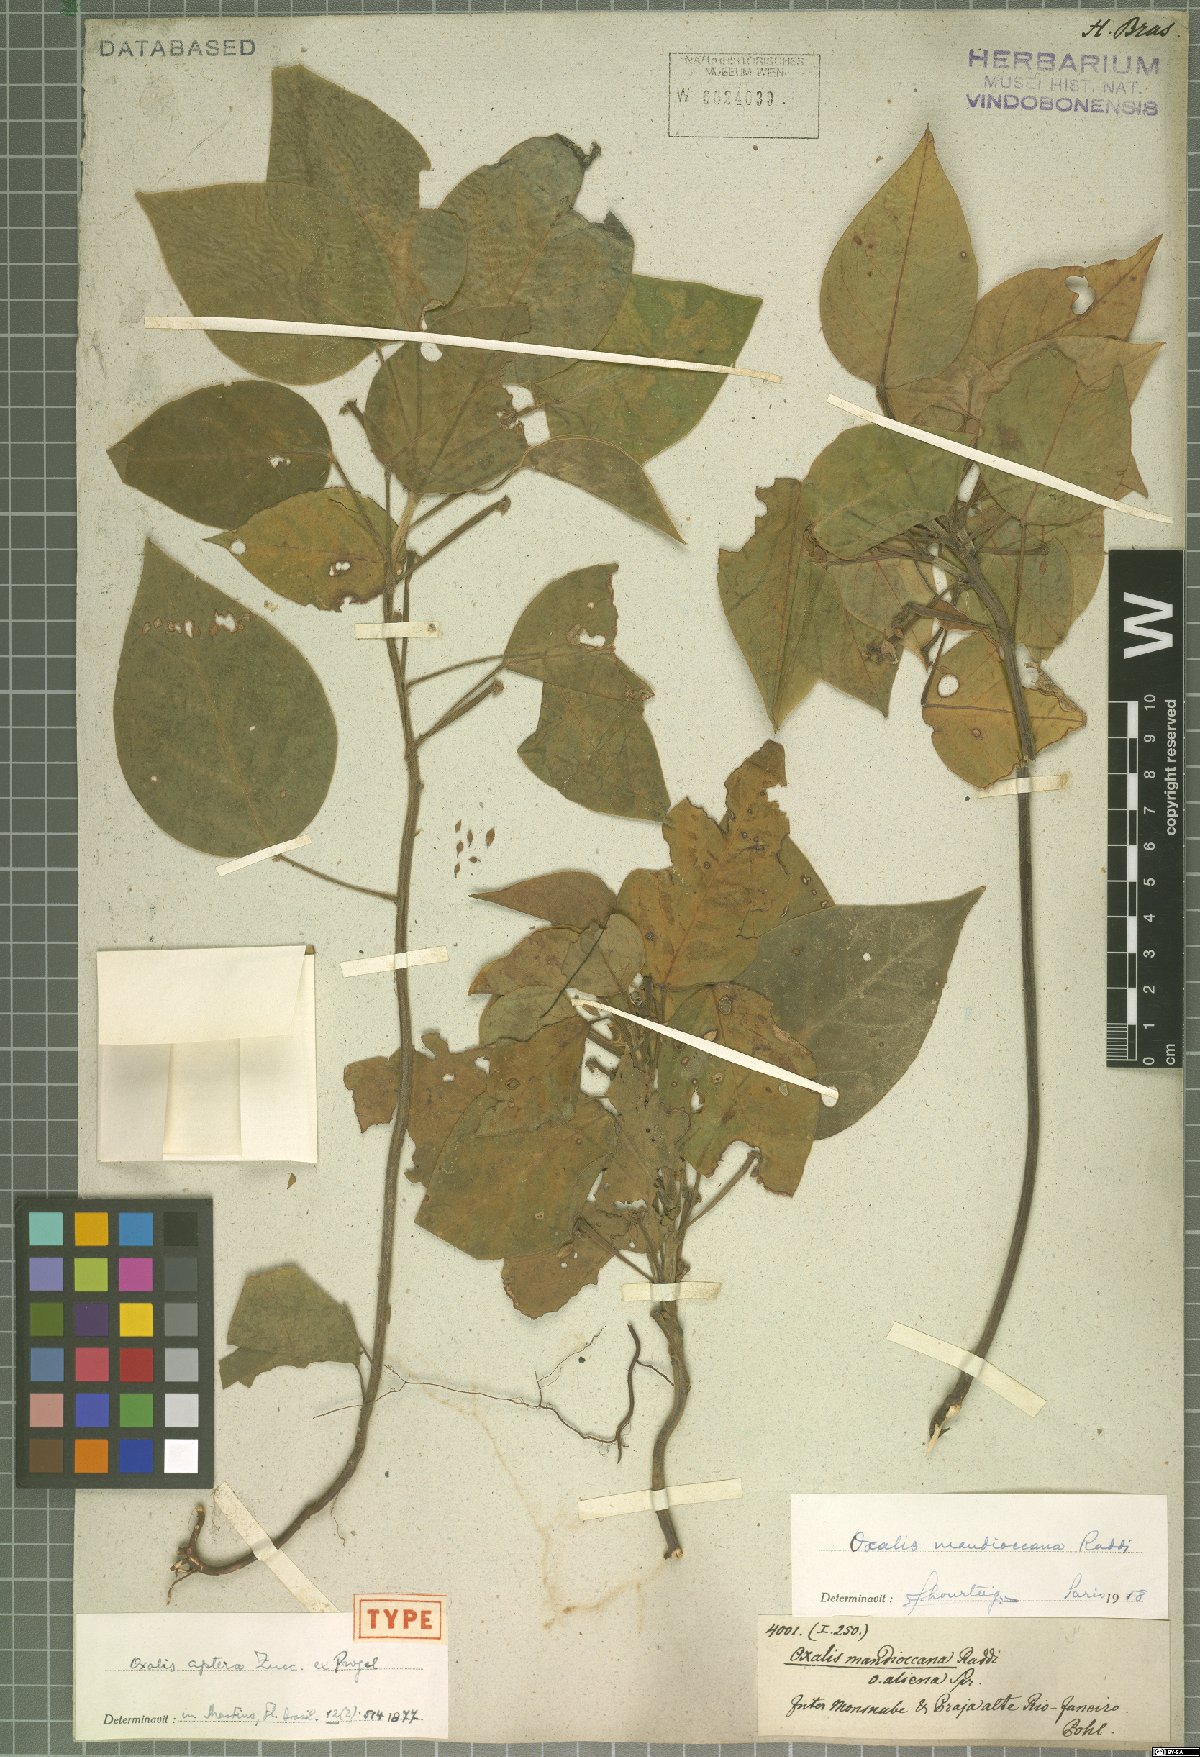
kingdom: Plantae
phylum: Tracheophyta
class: Magnoliopsida
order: Oxalidales
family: Oxalidaceae
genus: Oxalis
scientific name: Oxalis mandioccana
